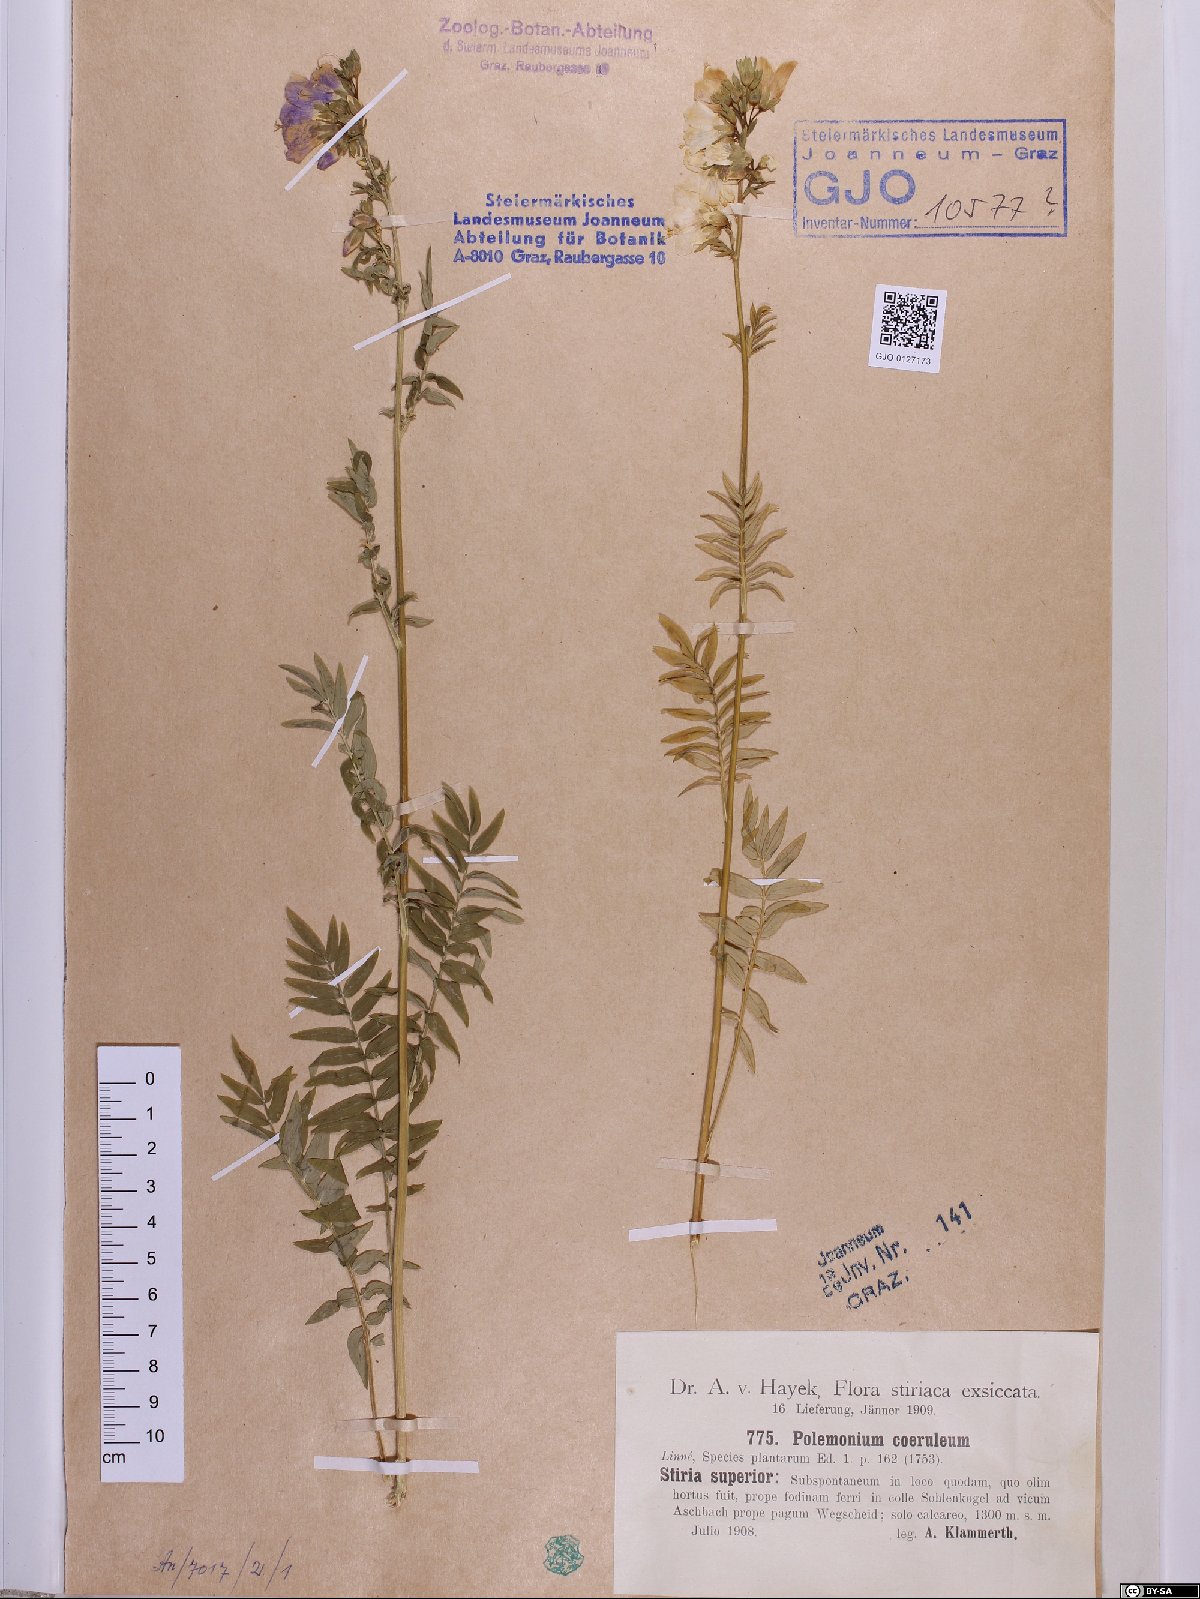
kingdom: Plantae
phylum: Tracheophyta
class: Magnoliopsida
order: Ericales
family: Polemoniaceae
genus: Polemonium
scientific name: Polemonium caeruleum
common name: Jacob's-ladder
